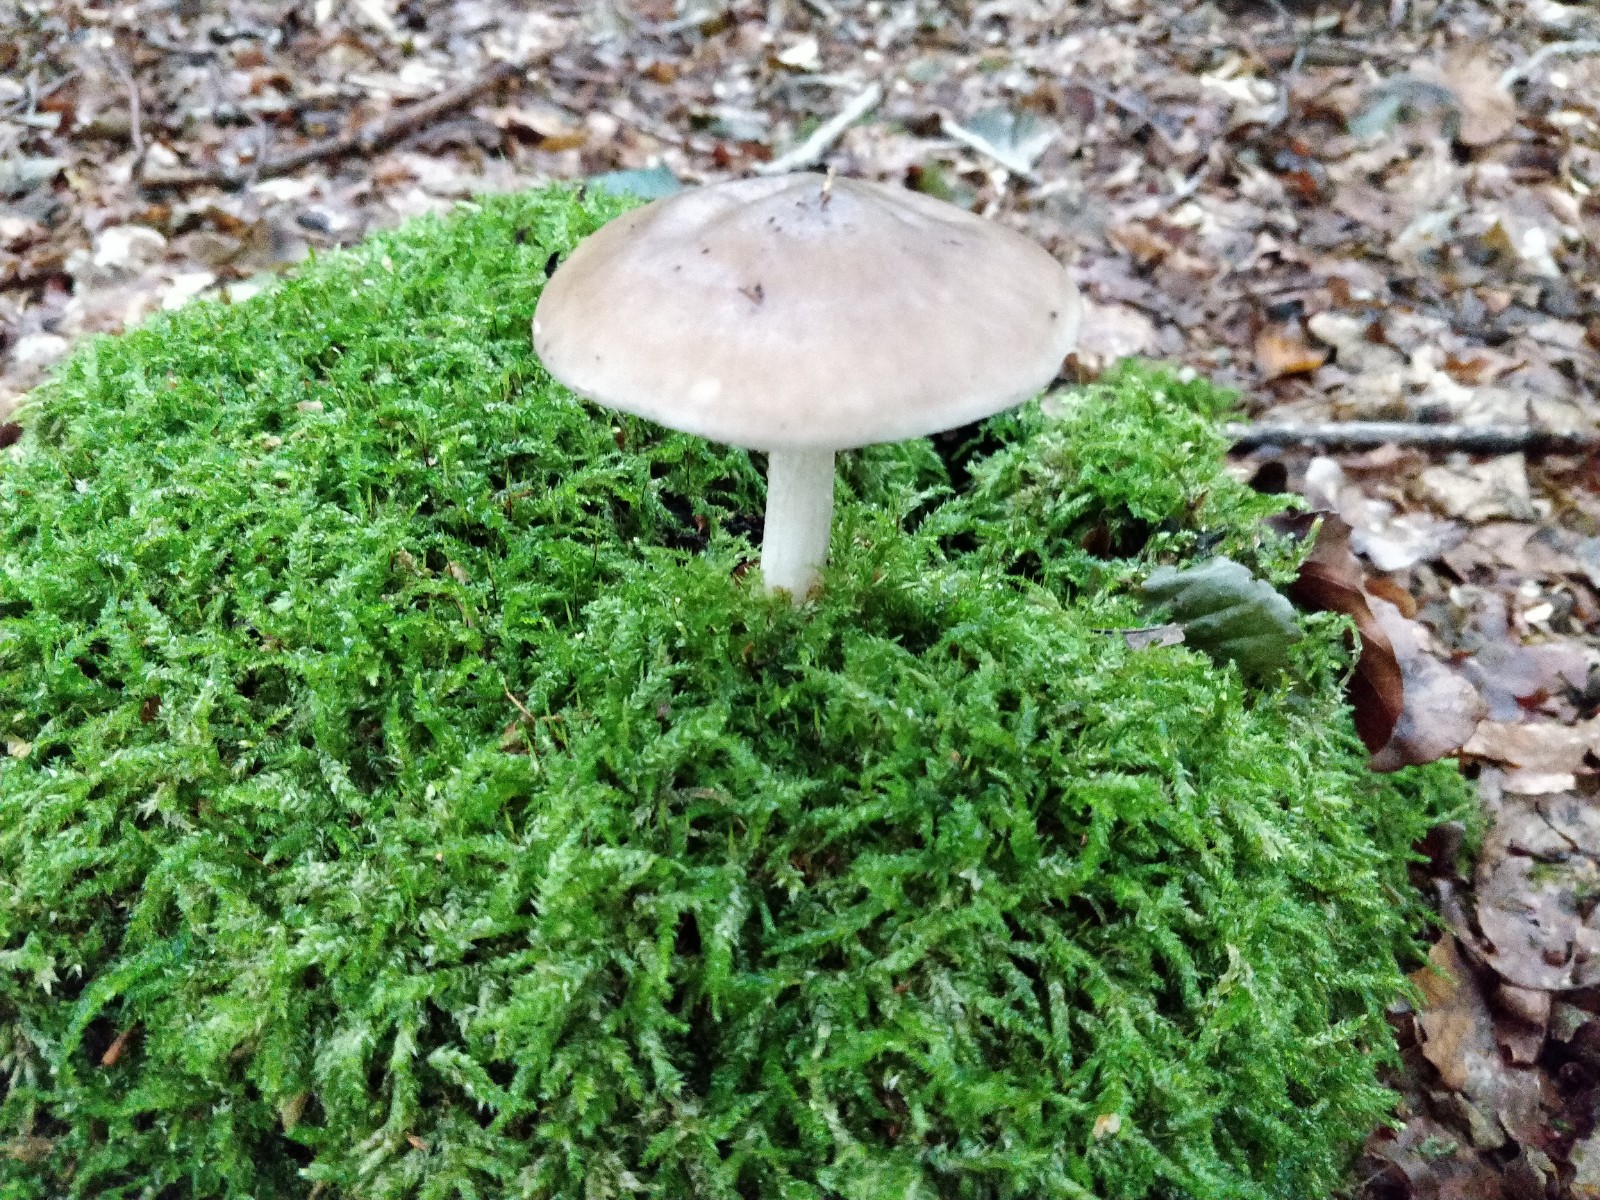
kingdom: Fungi
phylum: Basidiomycota
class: Agaricomycetes
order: Agaricales
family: Pluteaceae
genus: Pluteus
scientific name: Pluteus cervinus
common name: sodfarvet skærmhat
